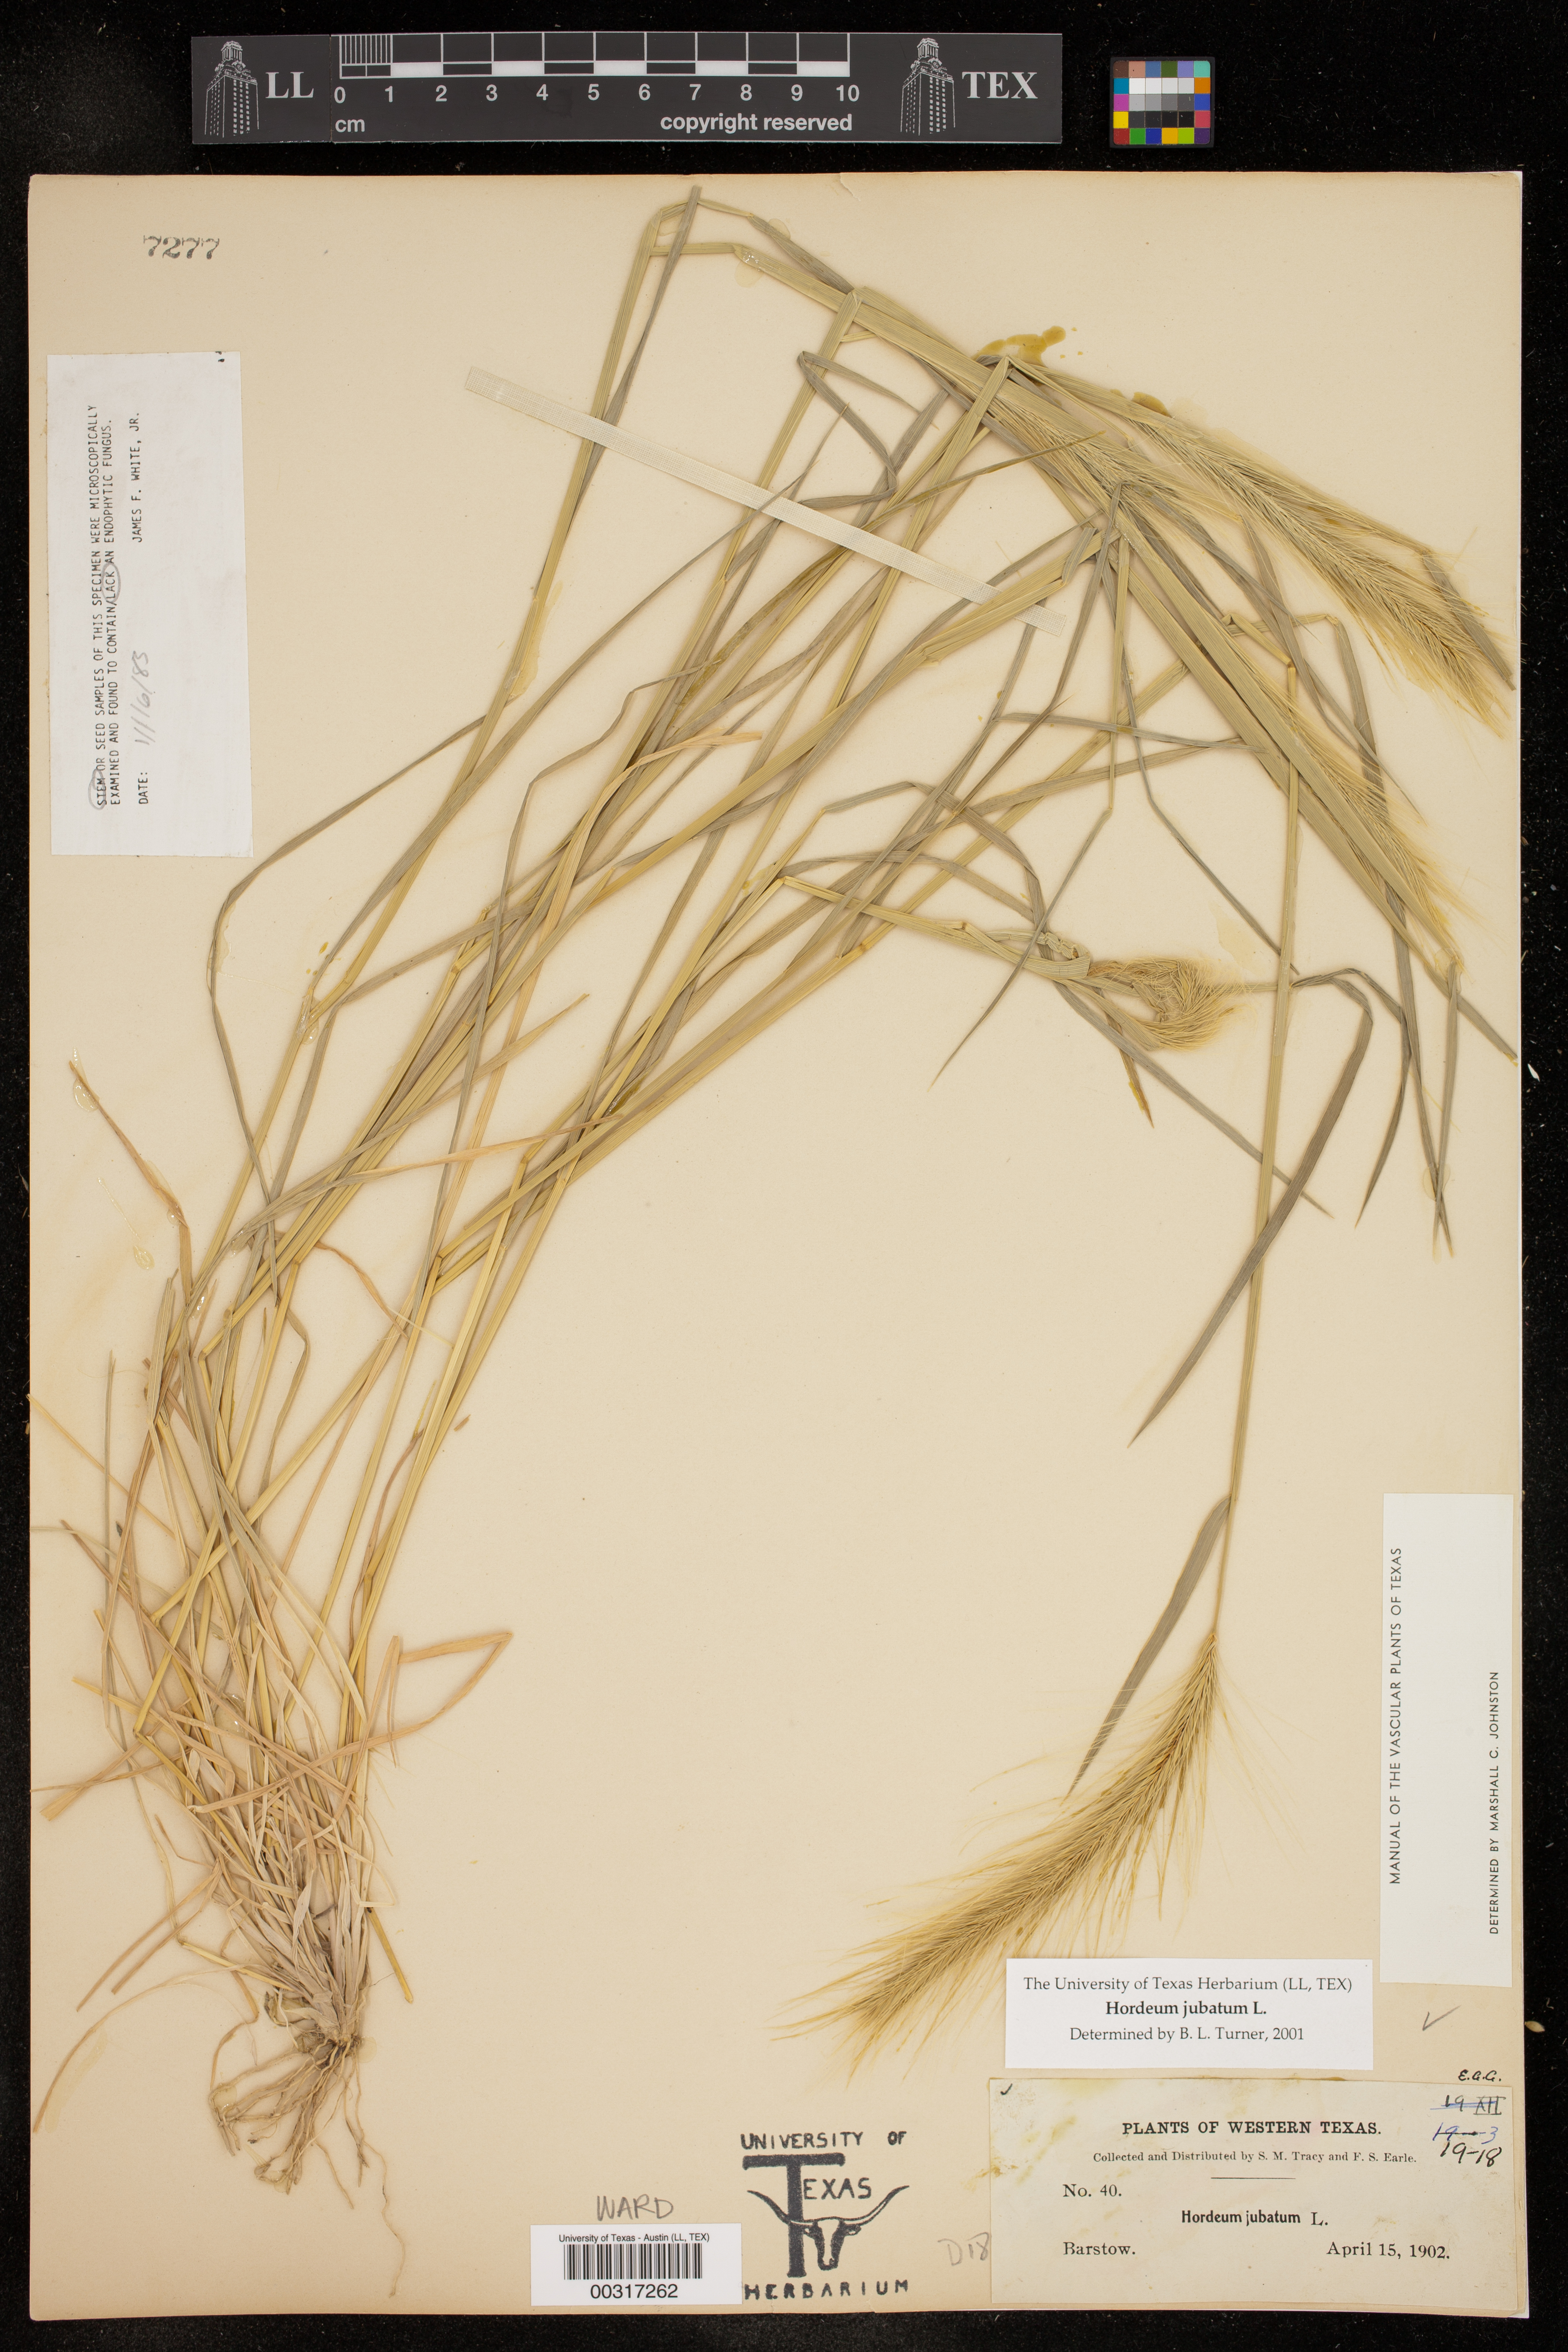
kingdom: Plantae
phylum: Tracheophyta
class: Liliopsida
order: Poales
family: Poaceae
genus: Hordeum
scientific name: Hordeum jubatum
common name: Foxtail barley
